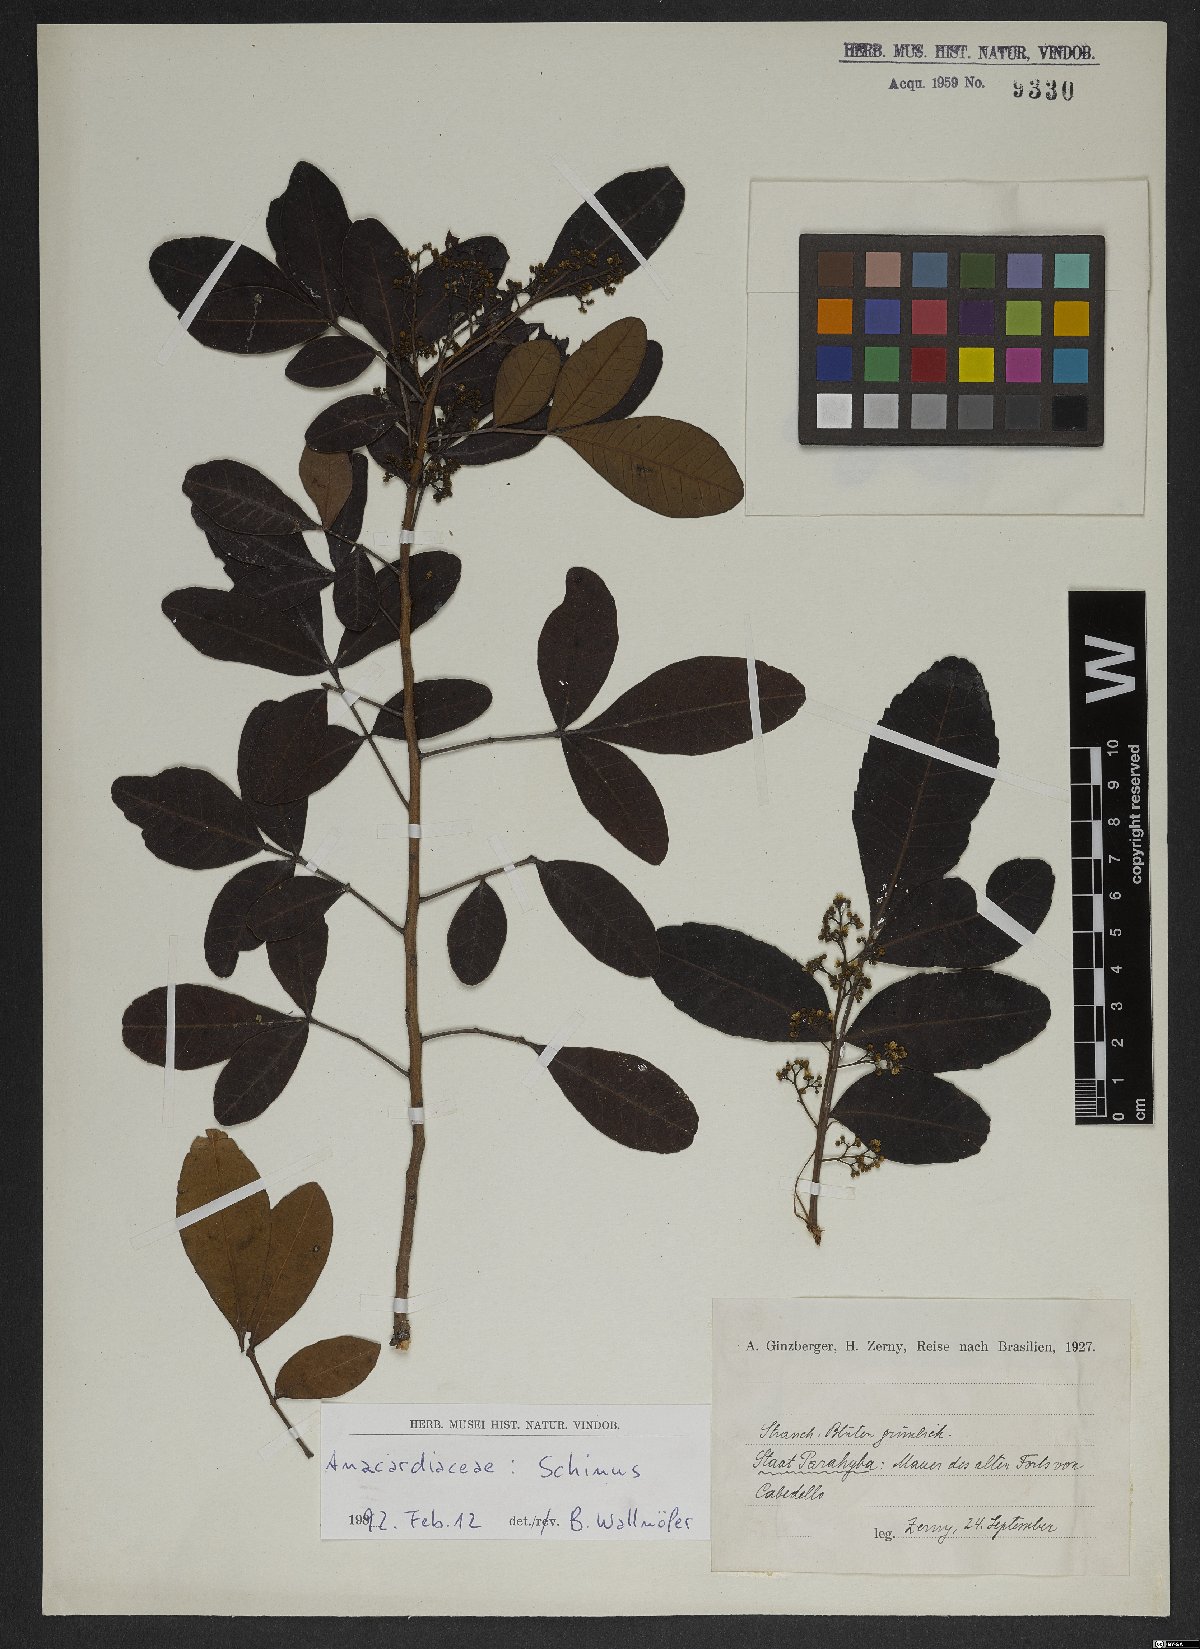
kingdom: Plantae
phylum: Tracheophyta
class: Magnoliopsida
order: Sapindales
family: Anacardiaceae
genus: Schinus
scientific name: Schinus
